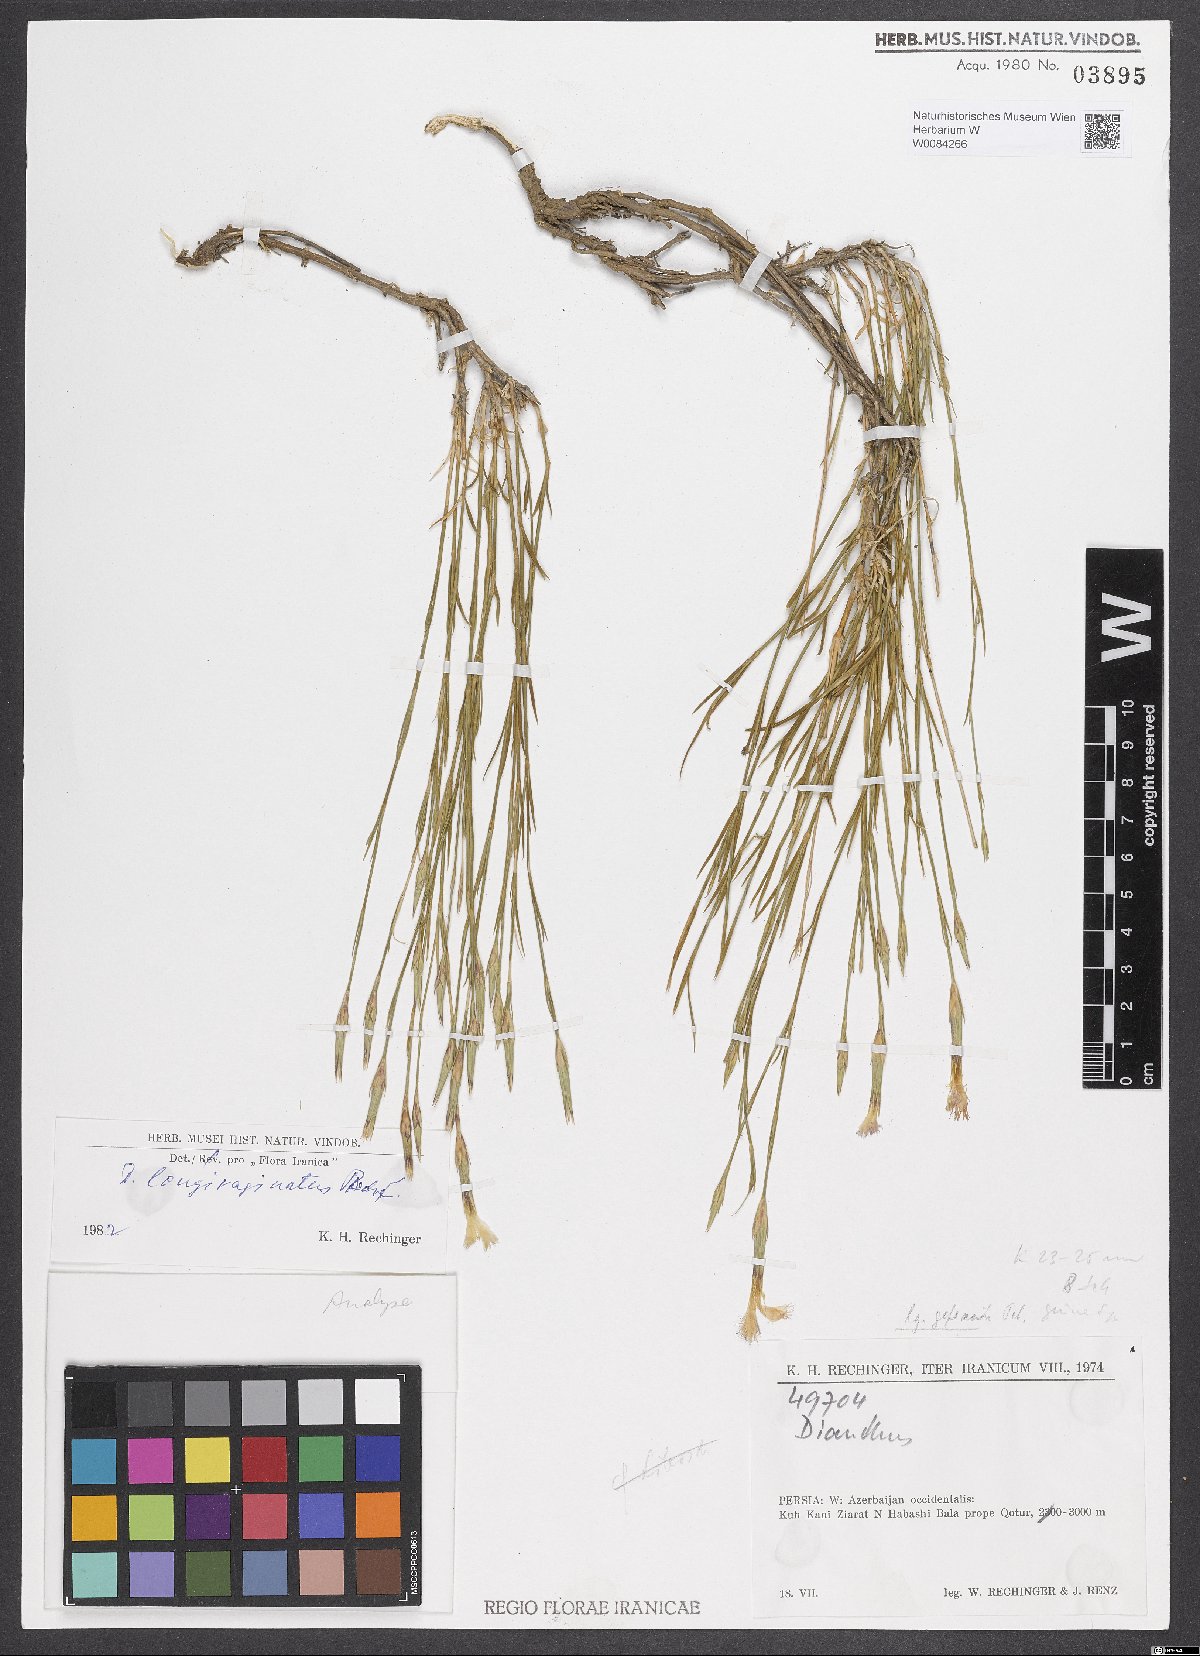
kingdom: Plantae
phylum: Tracheophyta
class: Magnoliopsida
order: Caryophyllales
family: Caryophyllaceae
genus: Dianthus
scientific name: Dianthus longivaginatus
